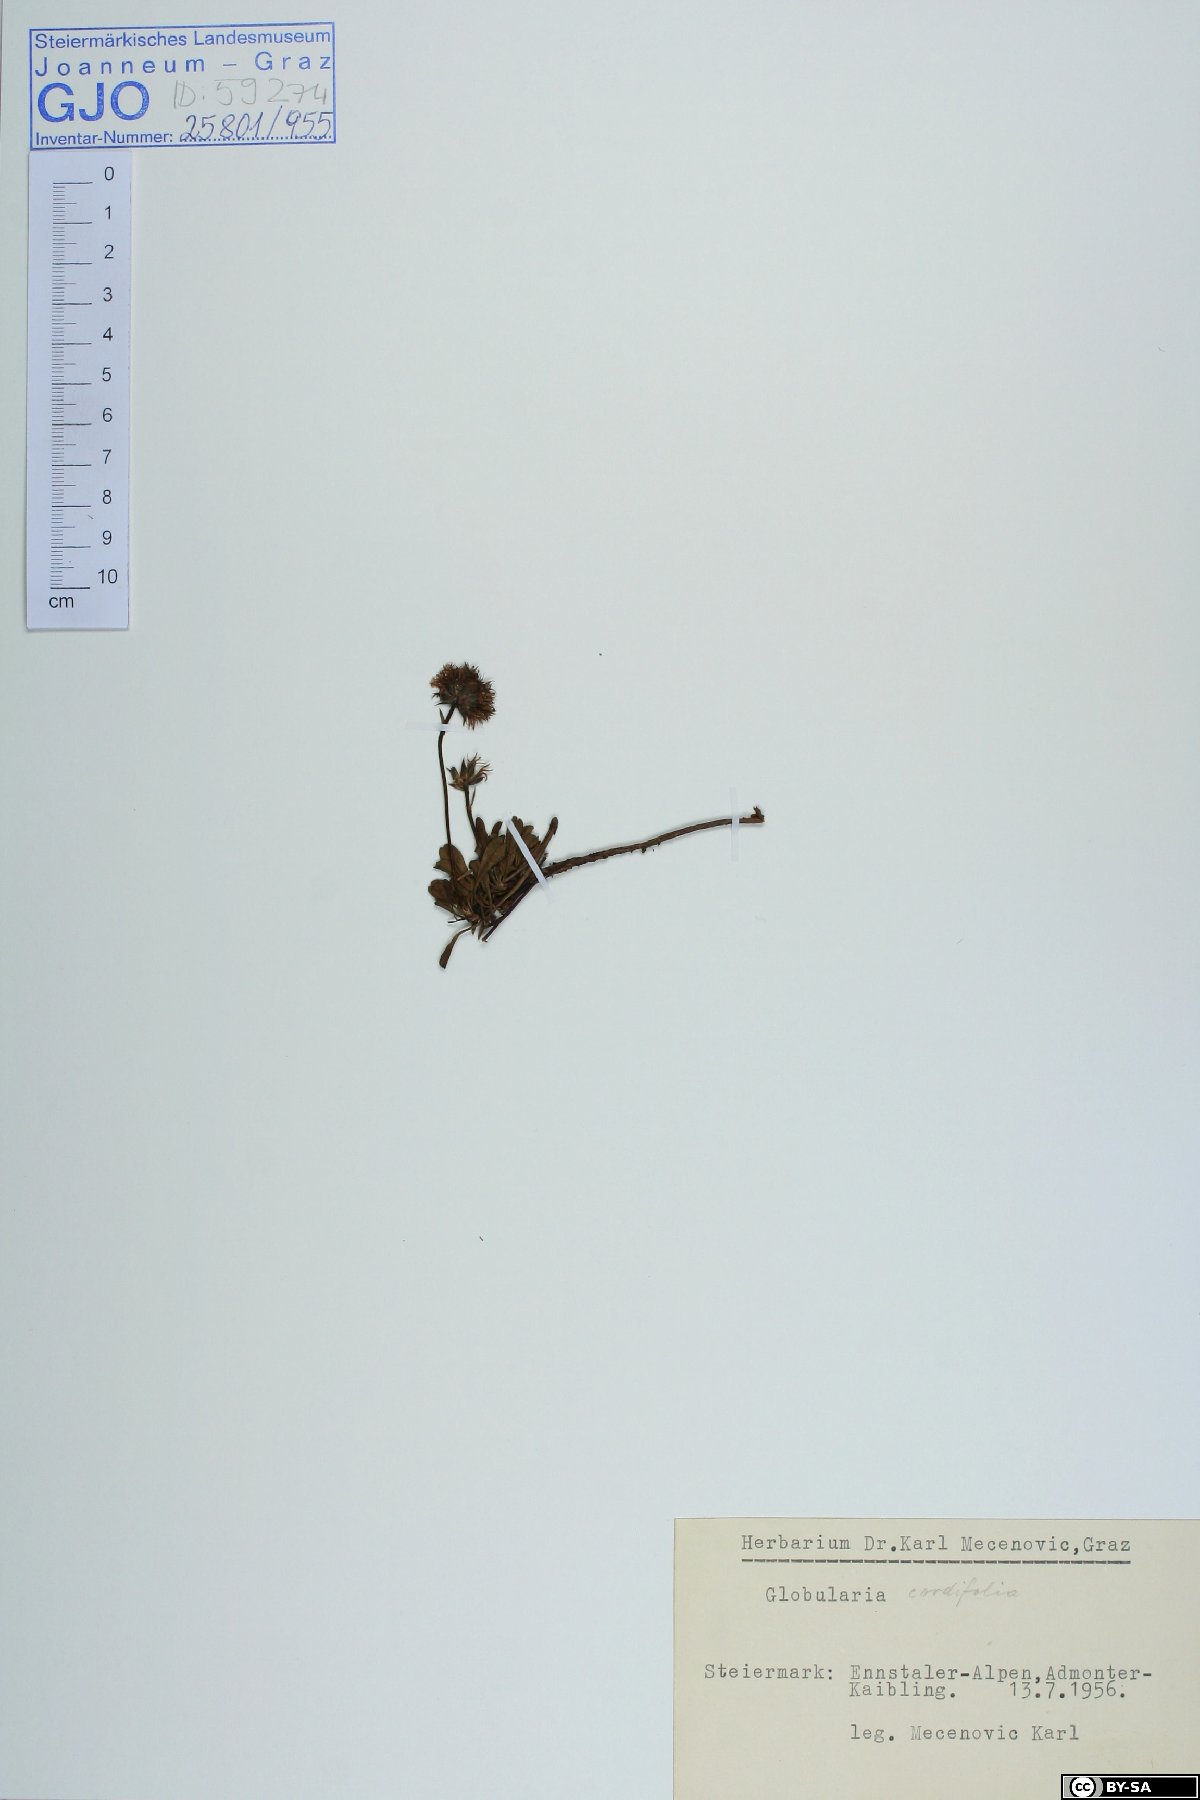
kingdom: Plantae
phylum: Tracheophyta
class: Magnoliopsida
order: Lamiales
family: Plantaginaceae
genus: Globularia
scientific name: Globularia cordifolia
